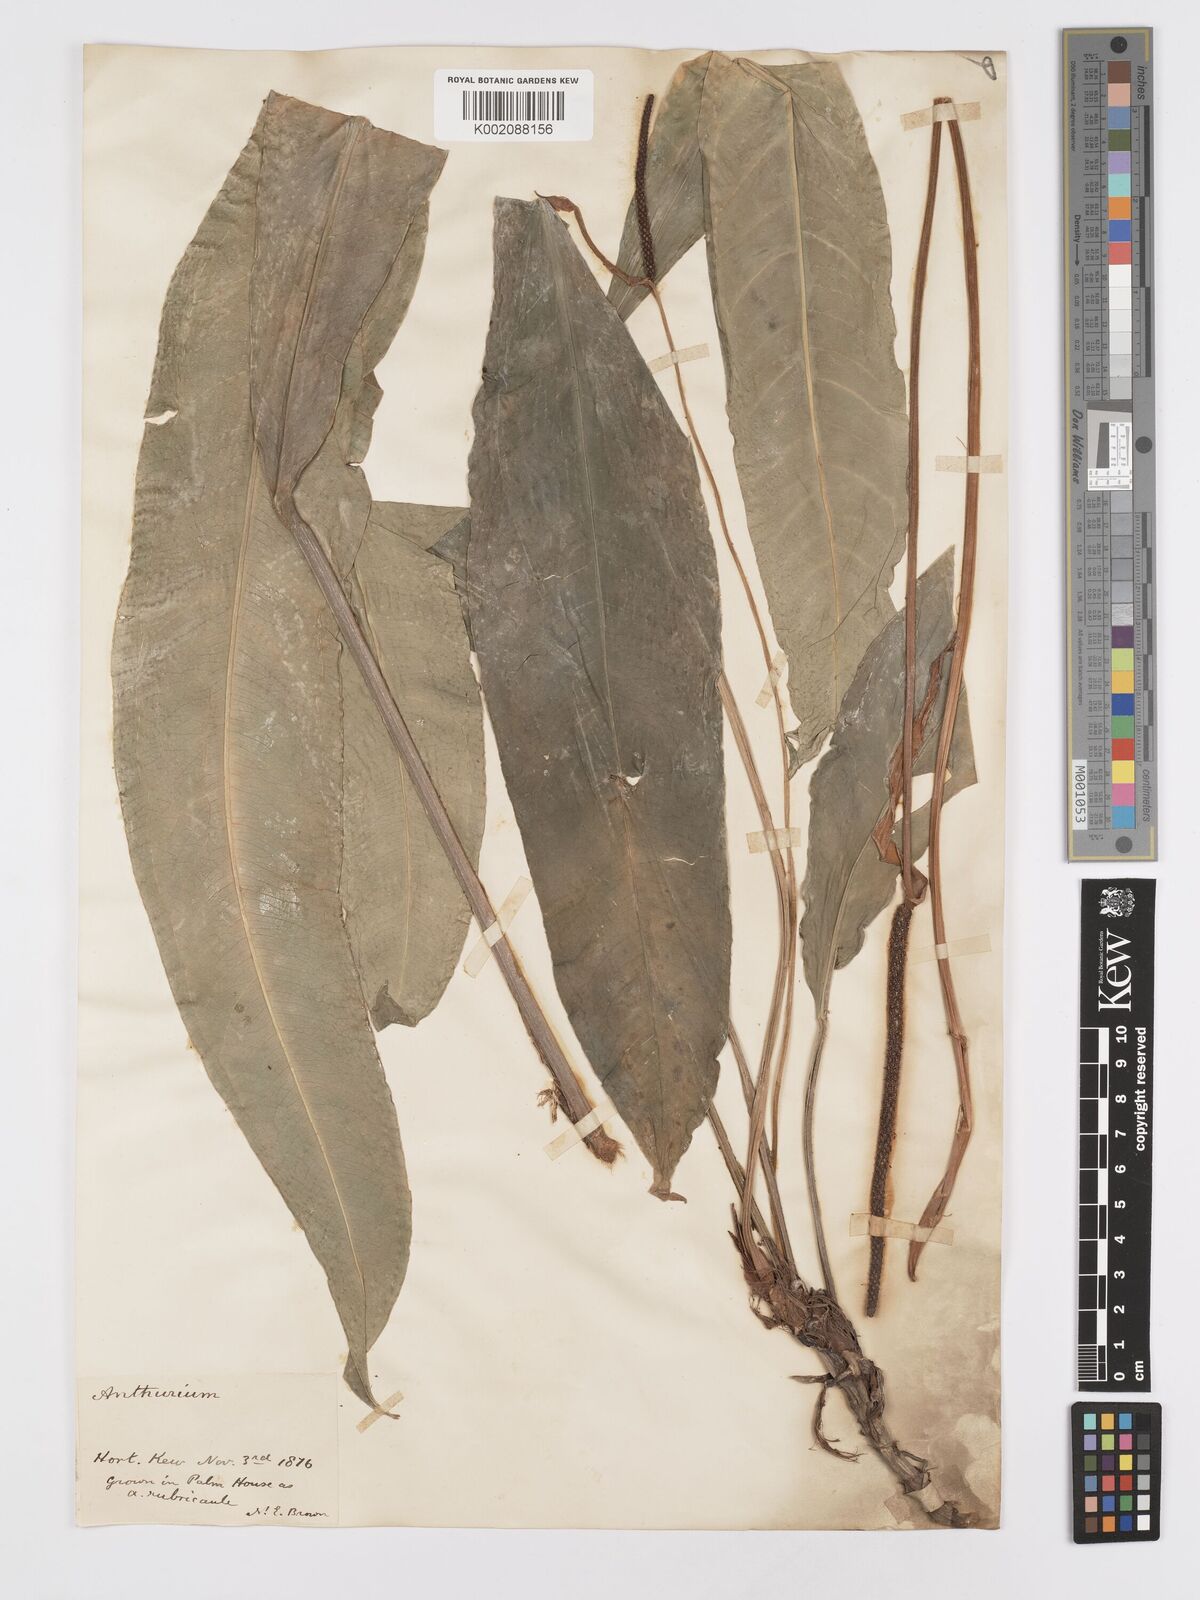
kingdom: Plantae
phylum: Tracheophyta
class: Liliopsida
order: Alismatales
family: Araceae
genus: Anthurium
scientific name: Anthurium
